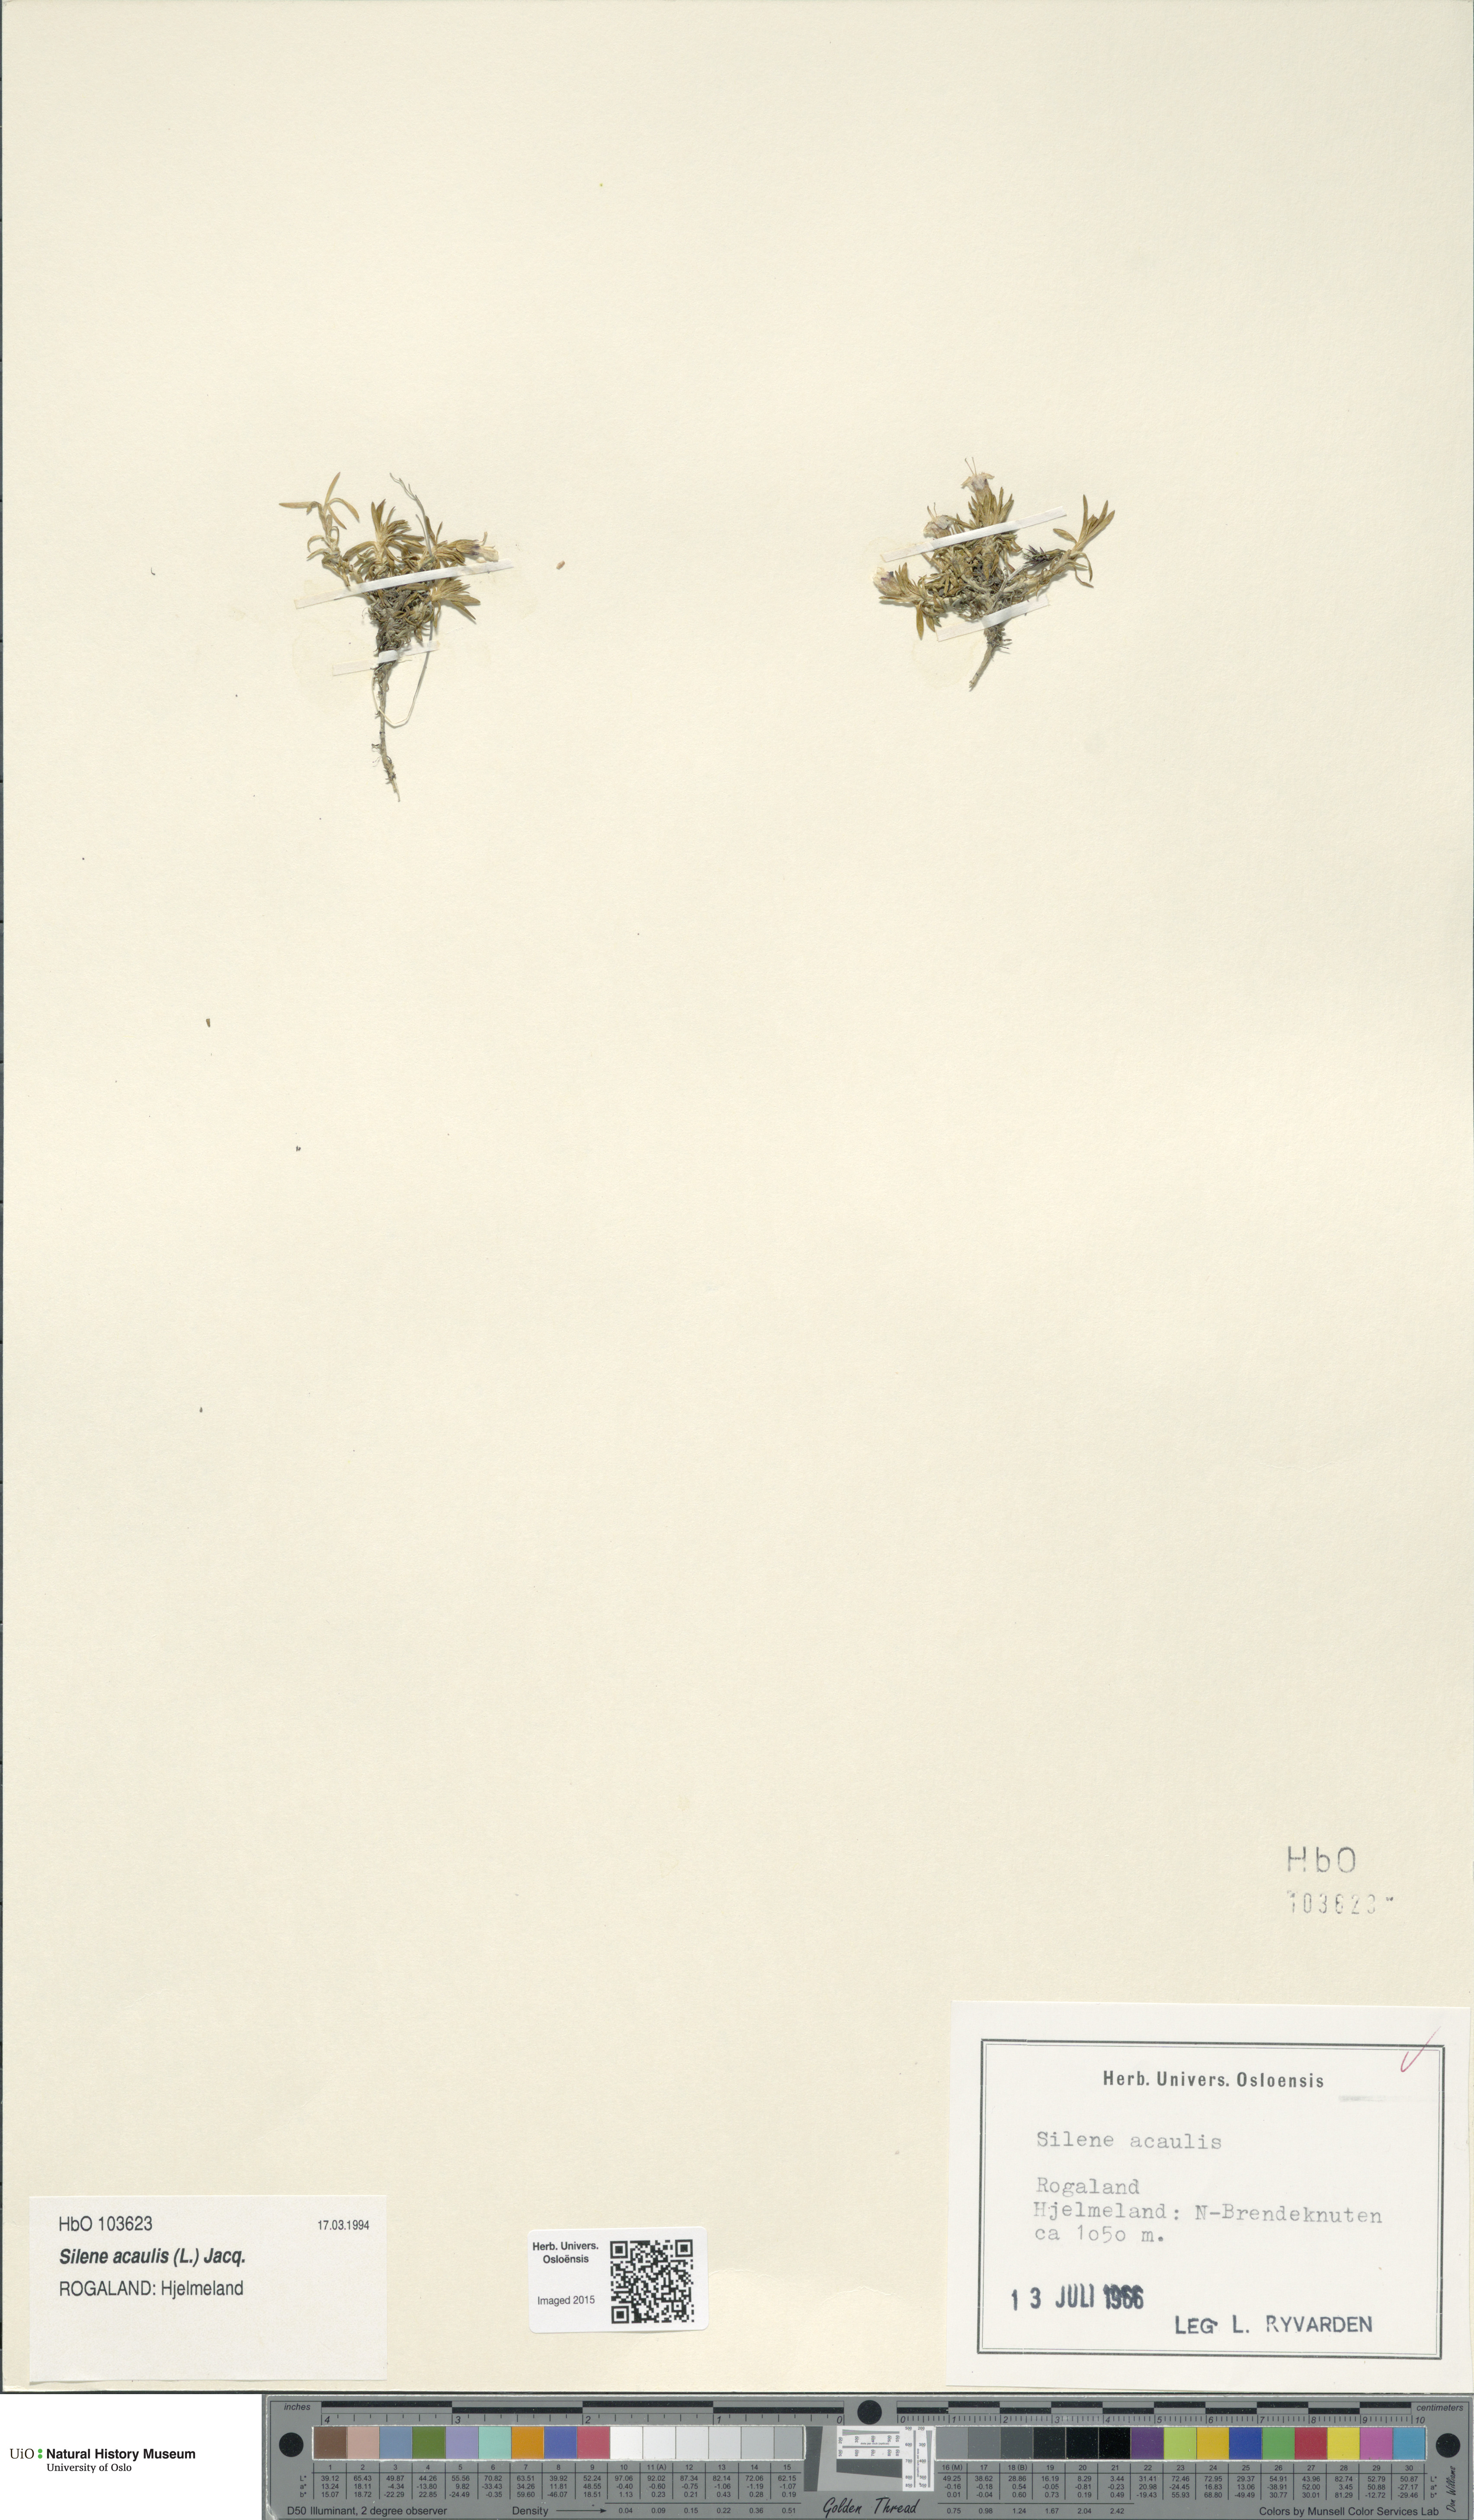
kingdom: Plantae
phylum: Tracheophyta
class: Magnoliopsida
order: Caryophyllales
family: Caryophyllaceae
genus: Silene
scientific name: Silene acaulis
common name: Moss campion
